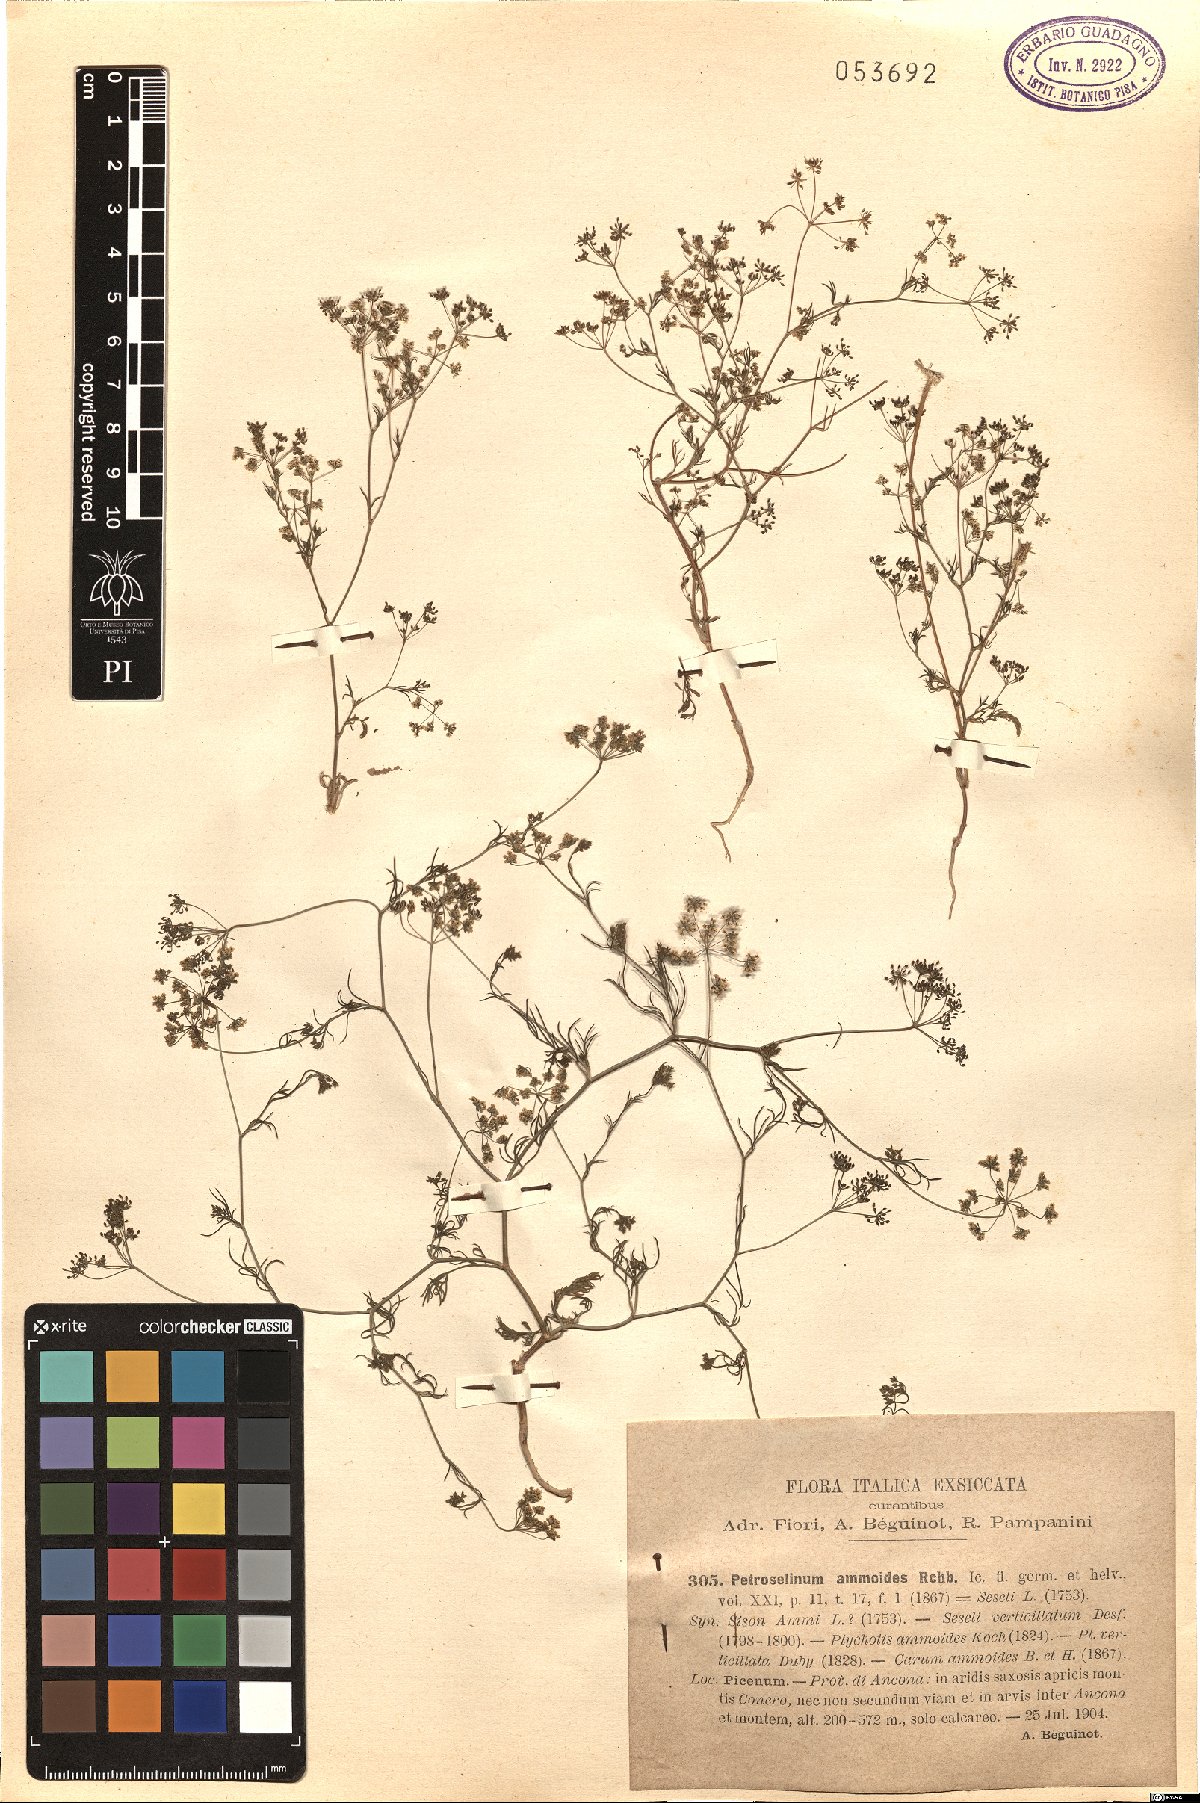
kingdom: Plantae
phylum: Tracheophyta
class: Magnoliopsida
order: Apiales
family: Apiaceae
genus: Ammoides
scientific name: Ammoides pusilla
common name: Cerfolium
